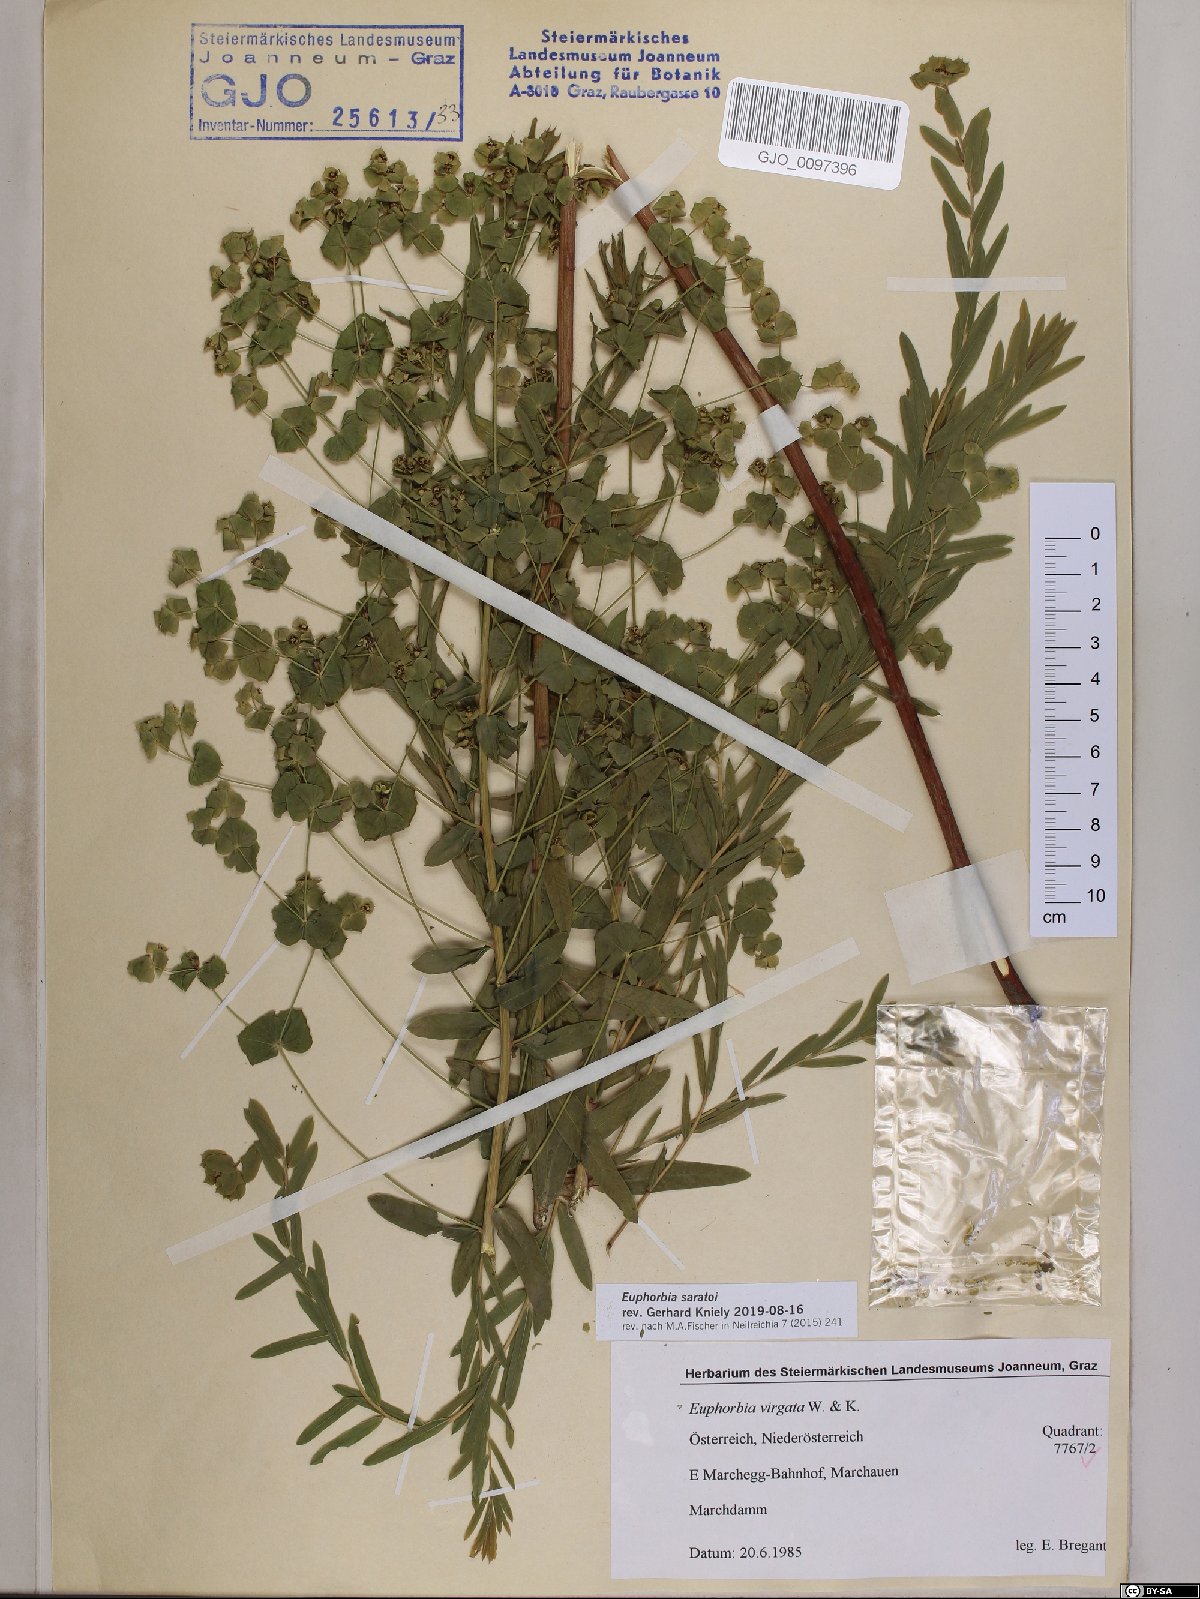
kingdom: Plantae
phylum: Tracheophyta
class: Magnoliopsida
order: Malpighiales
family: Euphorbiaceae
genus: Euphorbia
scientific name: Euphorbia saratoi
